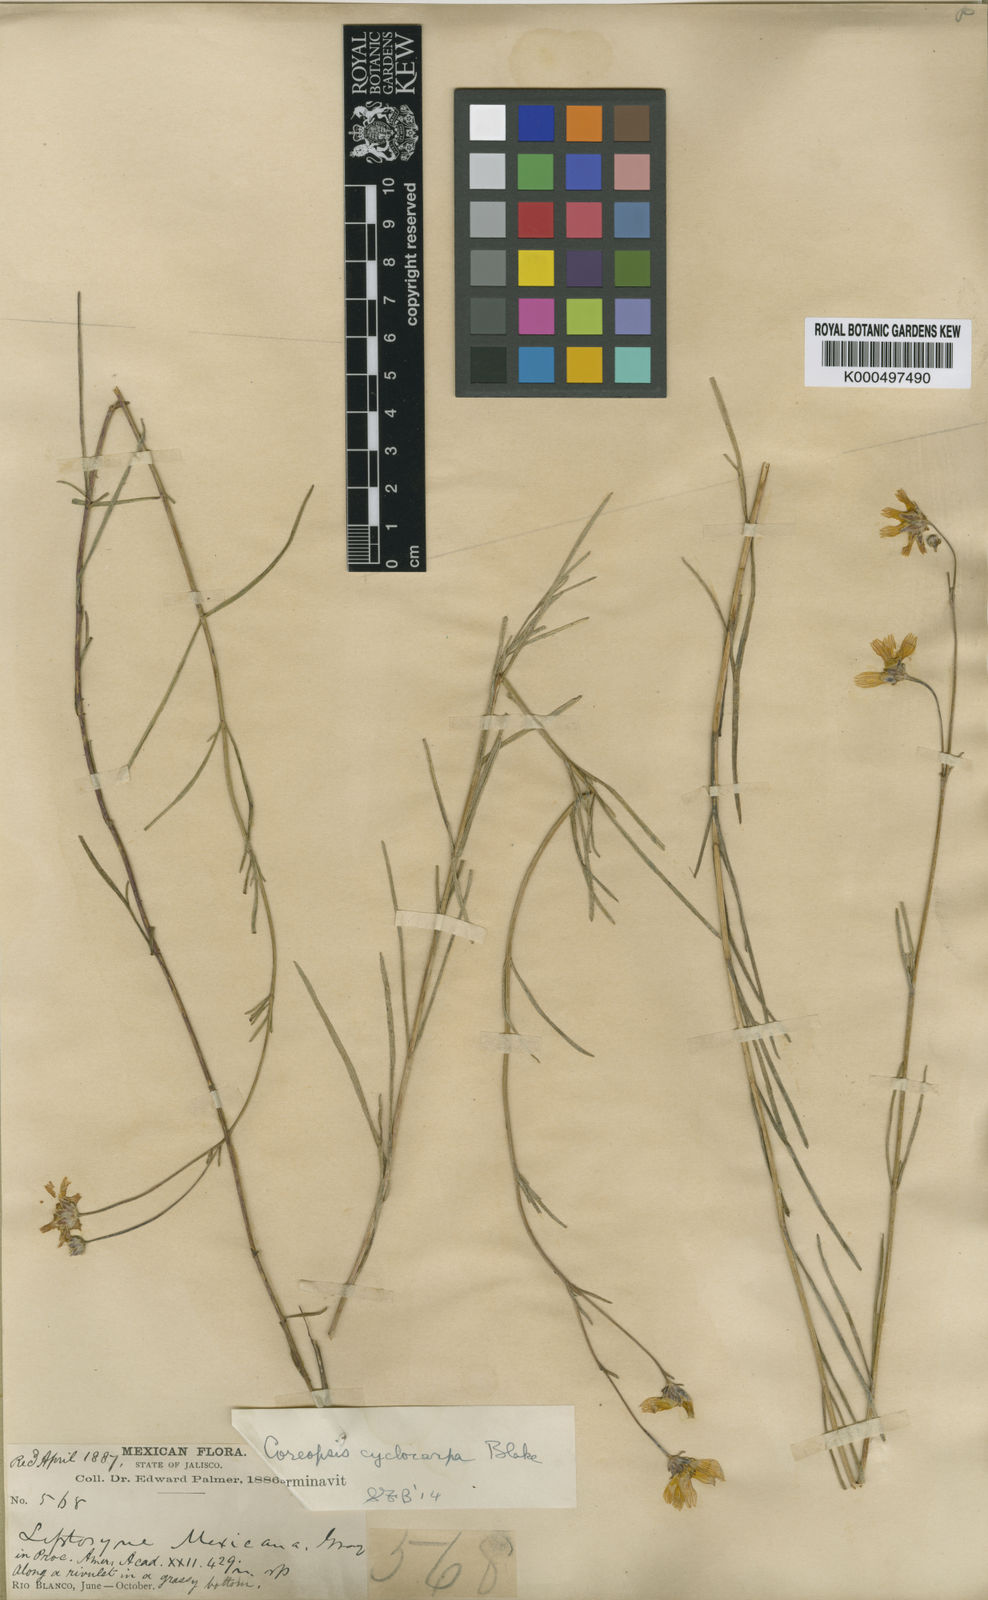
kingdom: Plantae
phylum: Tracheophyta
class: Magnoliopsida
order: Asterales
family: Asteraceae
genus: Heterosperma
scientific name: Heterosperma mexicanum
